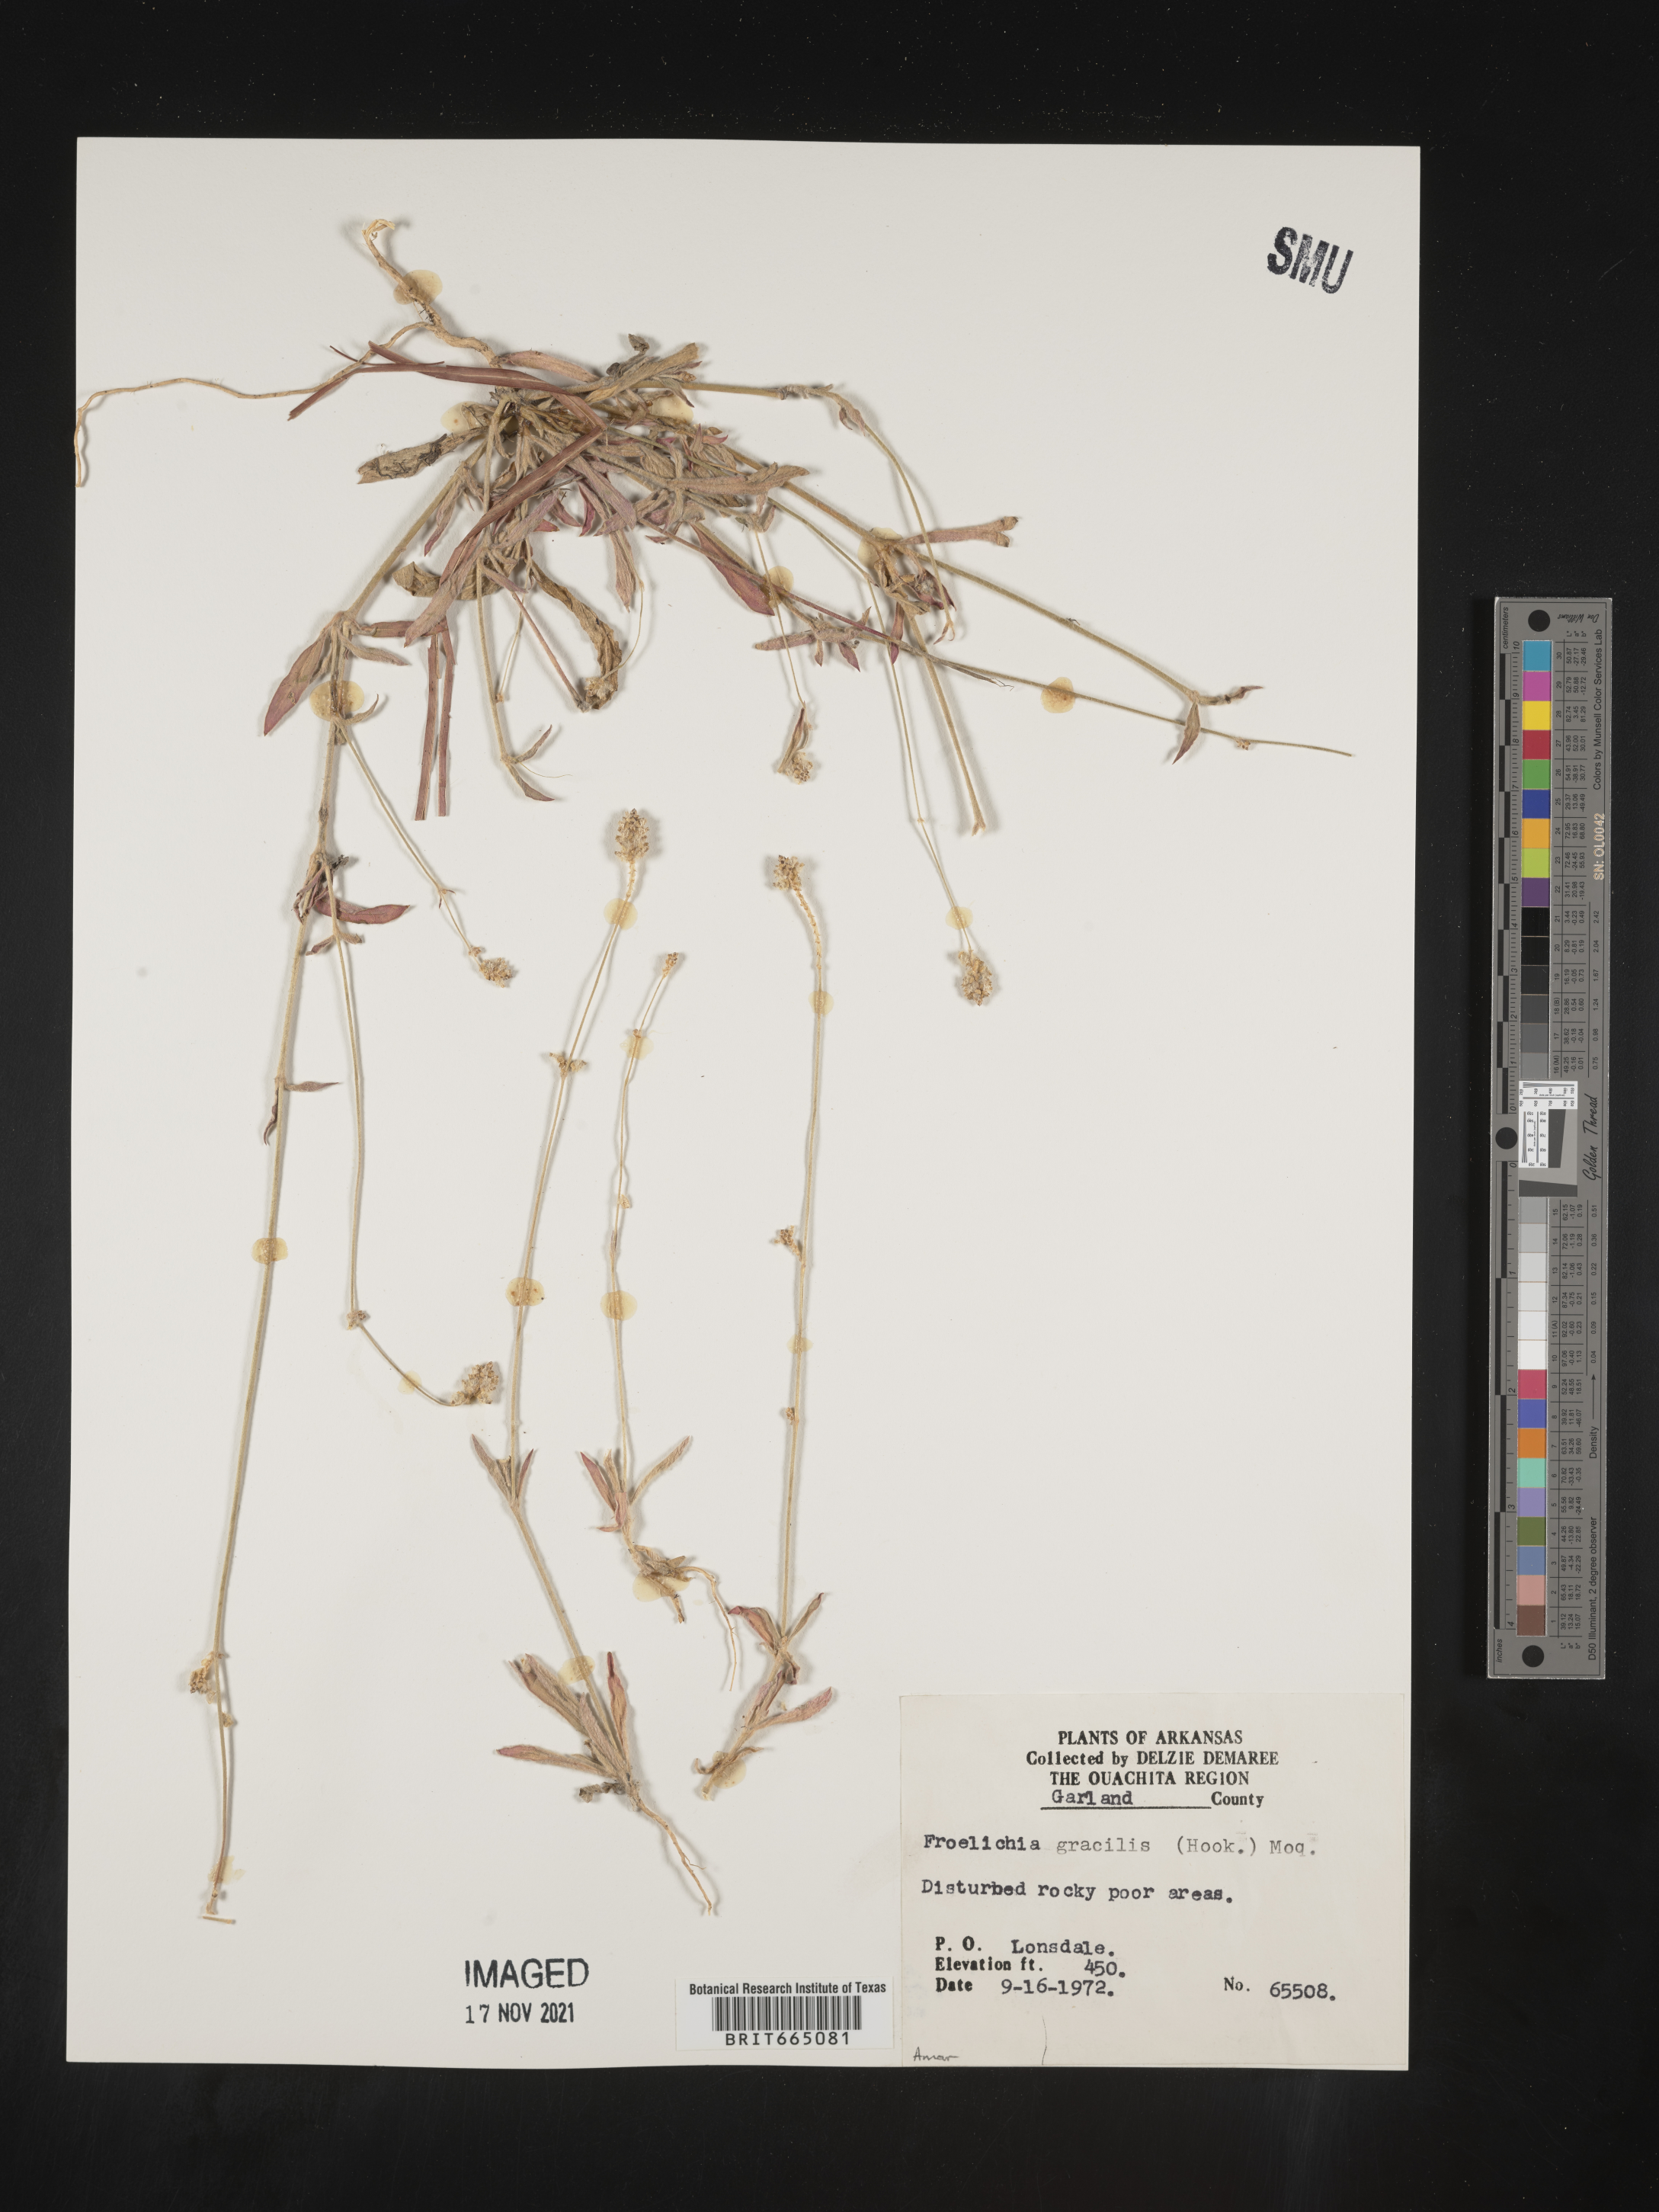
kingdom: Plantae
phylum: Tracheophyta
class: Magnoliopsida
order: Caryophyllales
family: Amaranthaceae
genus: Froelichia
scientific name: Froelichia gracilis
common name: Slender cottonweed
